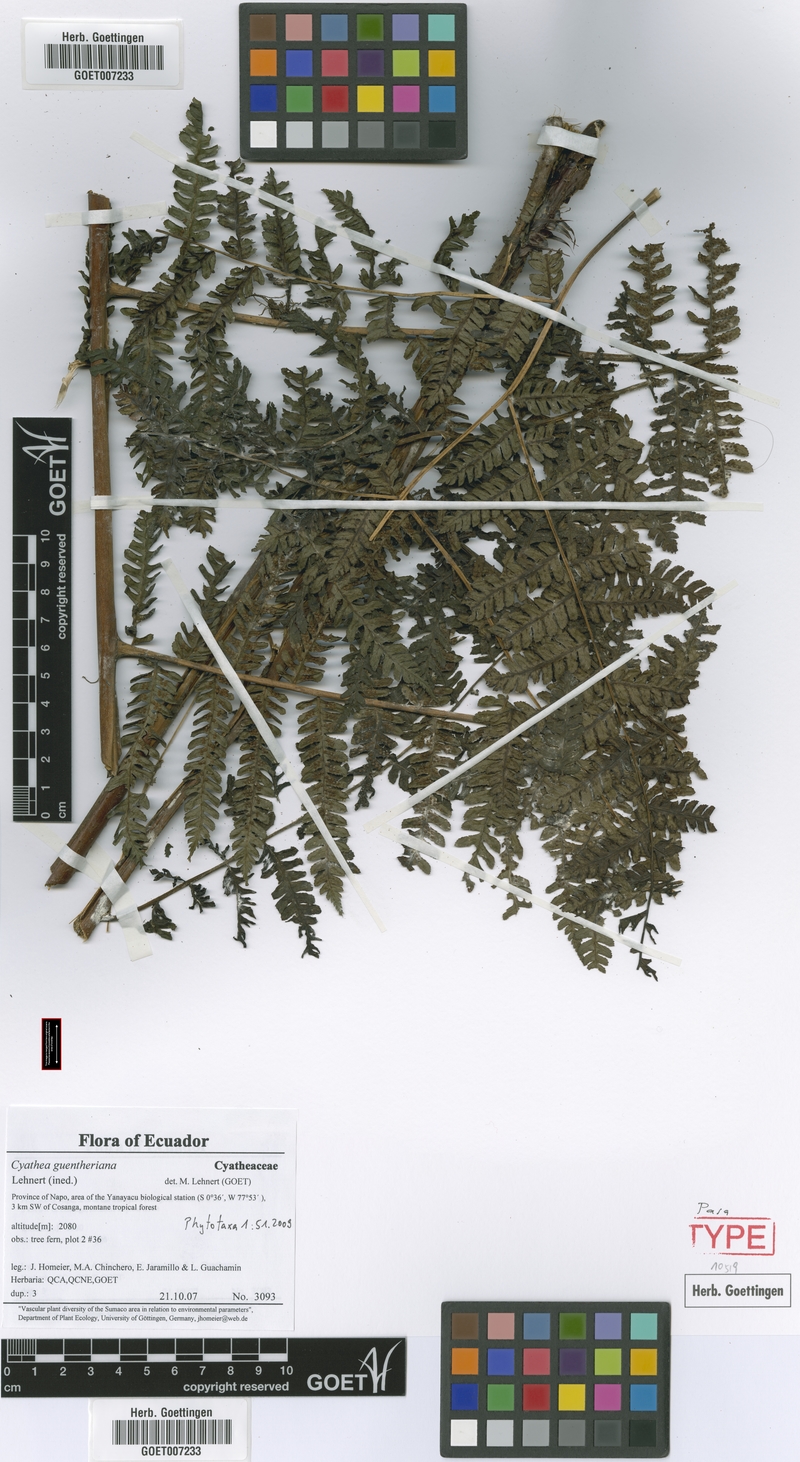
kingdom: Plantae
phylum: Tracheophyta
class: Polypodiopsida
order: Cyatheales
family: Cyatheaceae
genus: Cyathea
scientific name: Cyathea guentheriana
